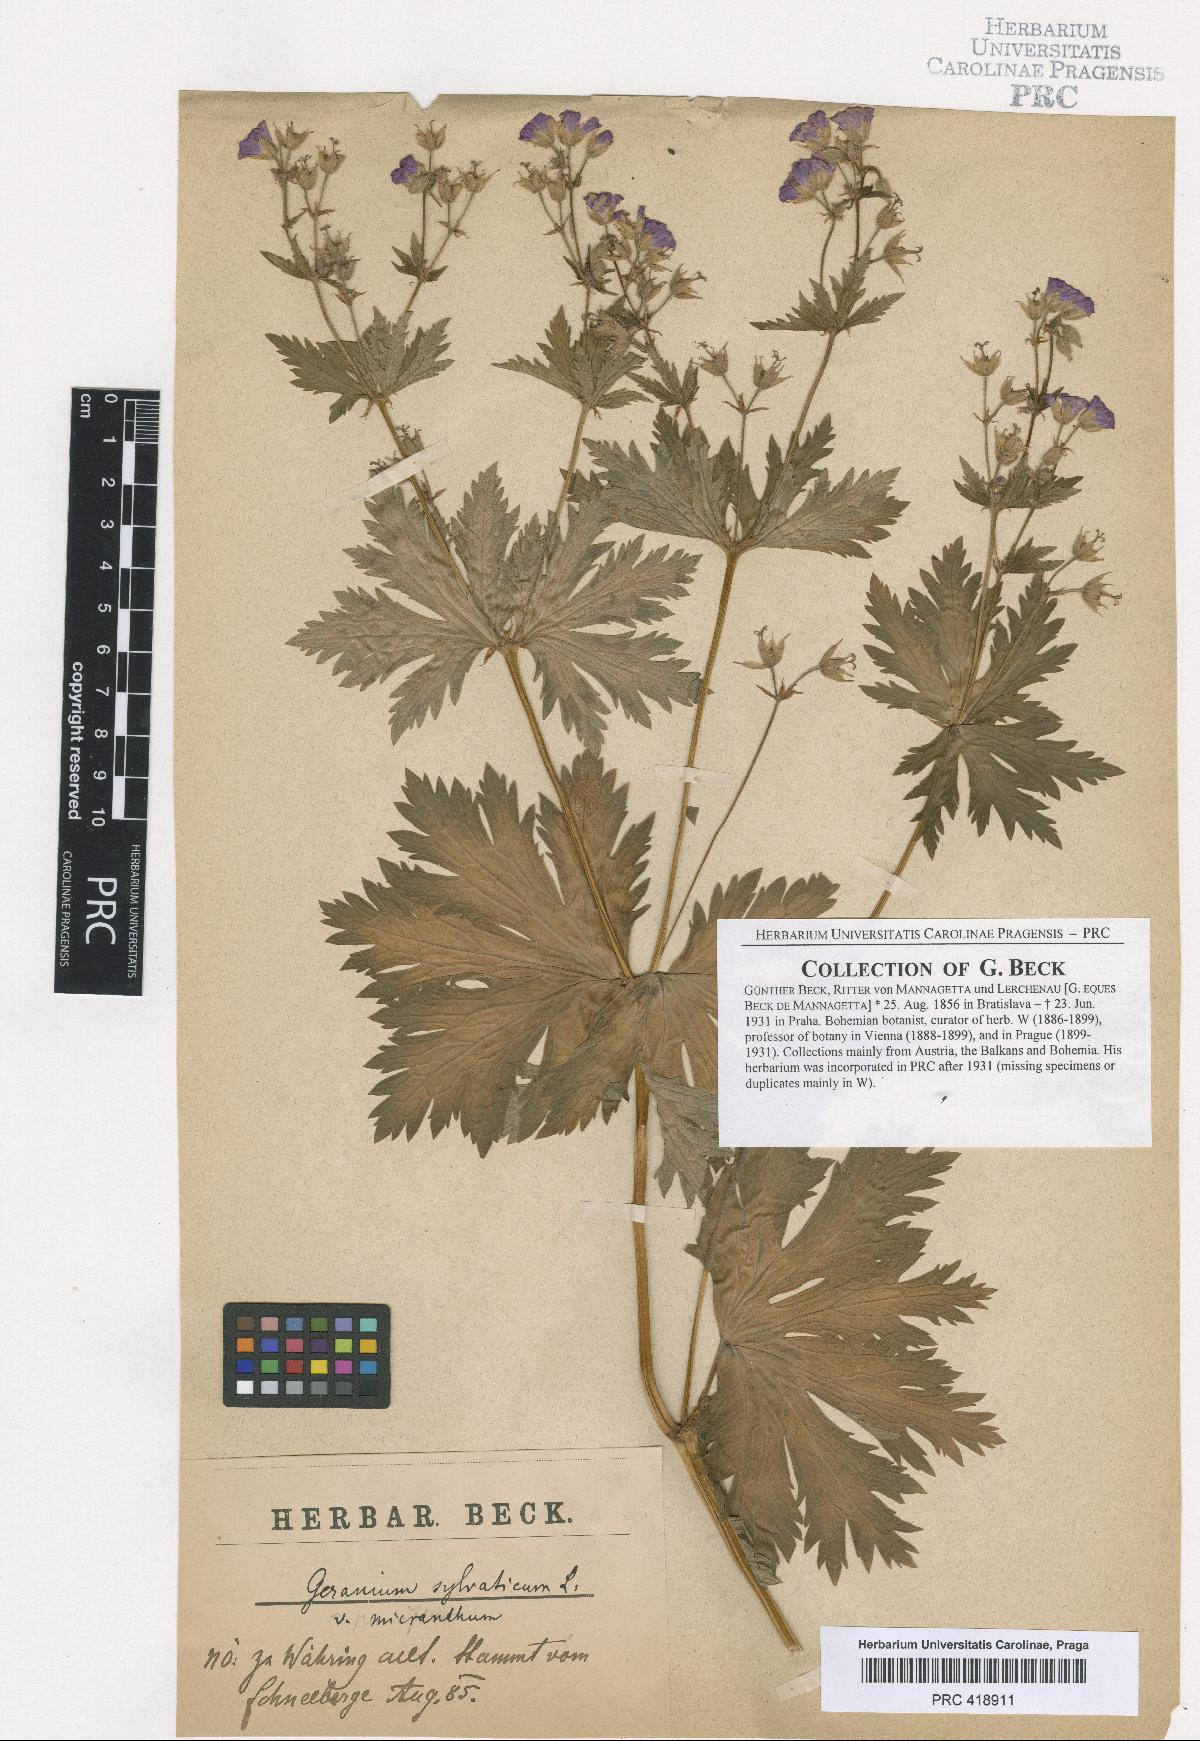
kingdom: Plantae
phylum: Tracheophyta
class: Magnoliopsida
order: Geraniales
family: Geraniaceae
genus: Geranium
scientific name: Geranium sylvaticum
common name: Wood crane's-bill
